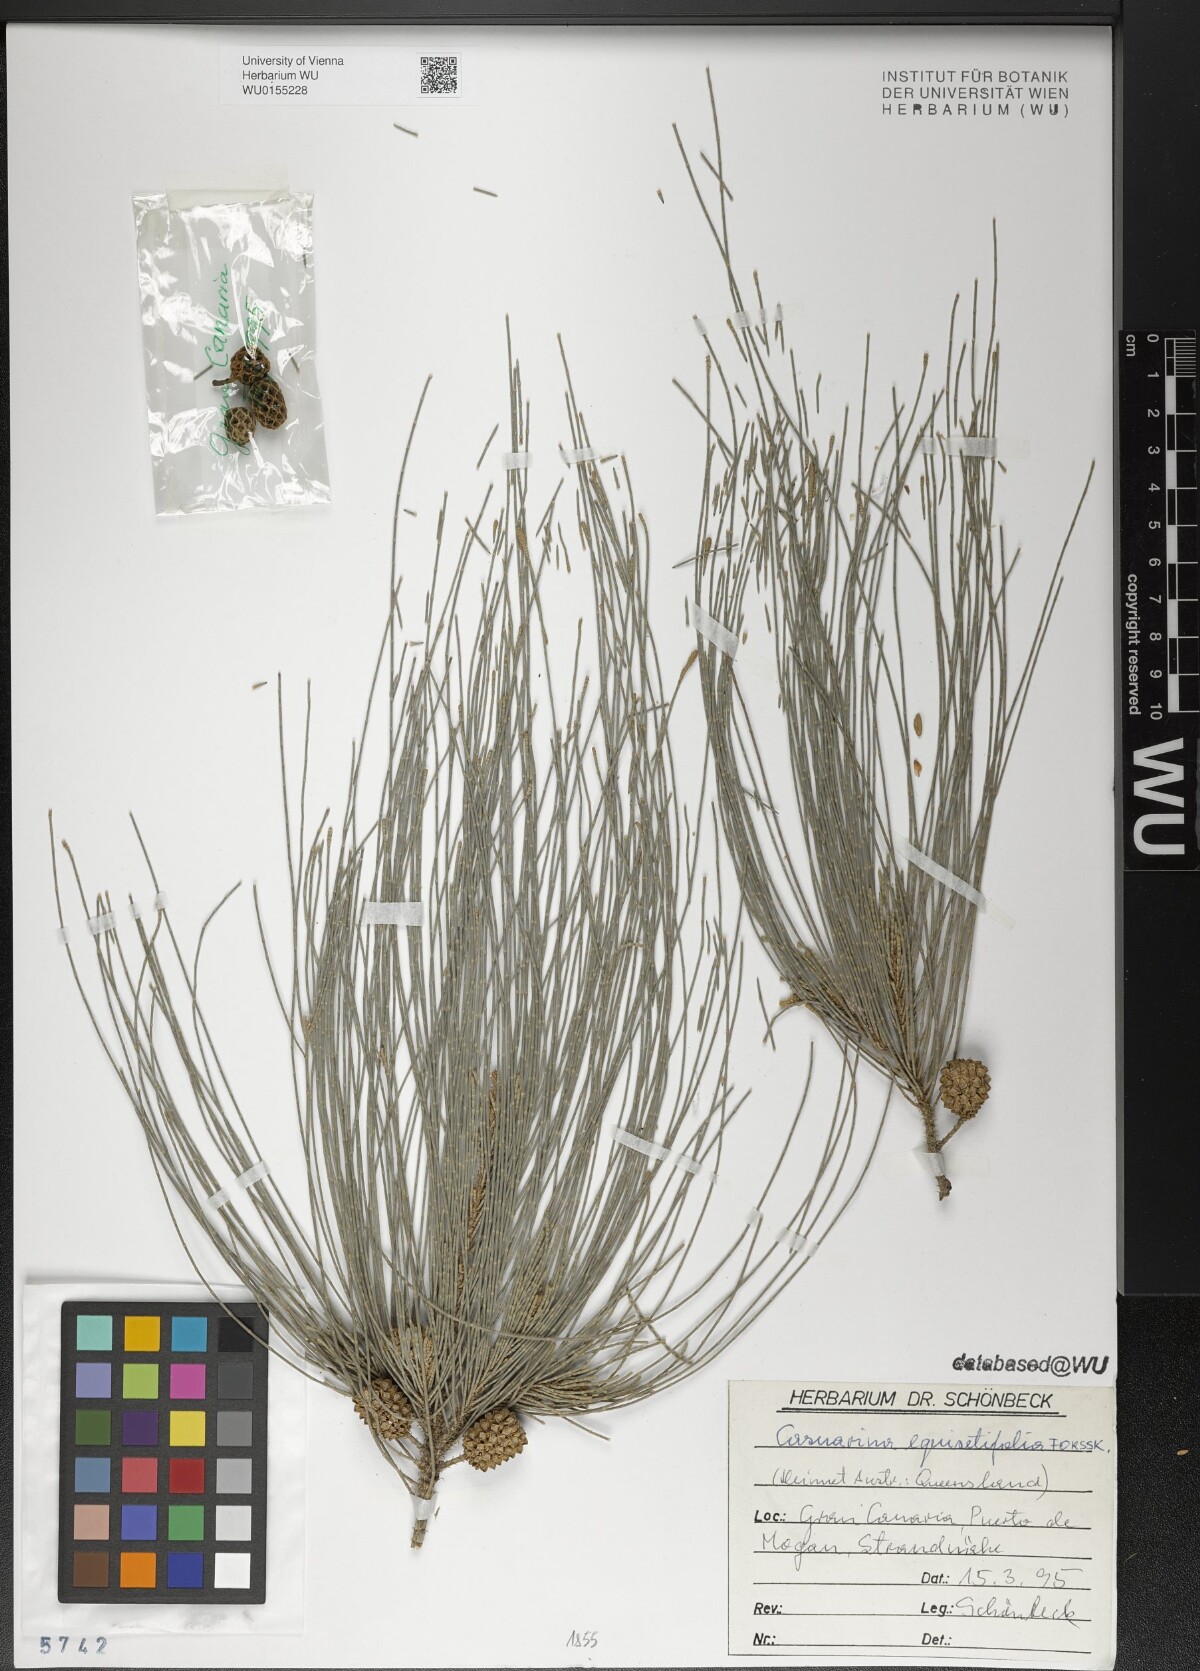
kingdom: Plantae
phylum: Tracheophyta
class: Magnoliopsida
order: Fagales
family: Casuarinaceae
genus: Casuarina
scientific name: Casuarina equisetifolia
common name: Beach sheoak
